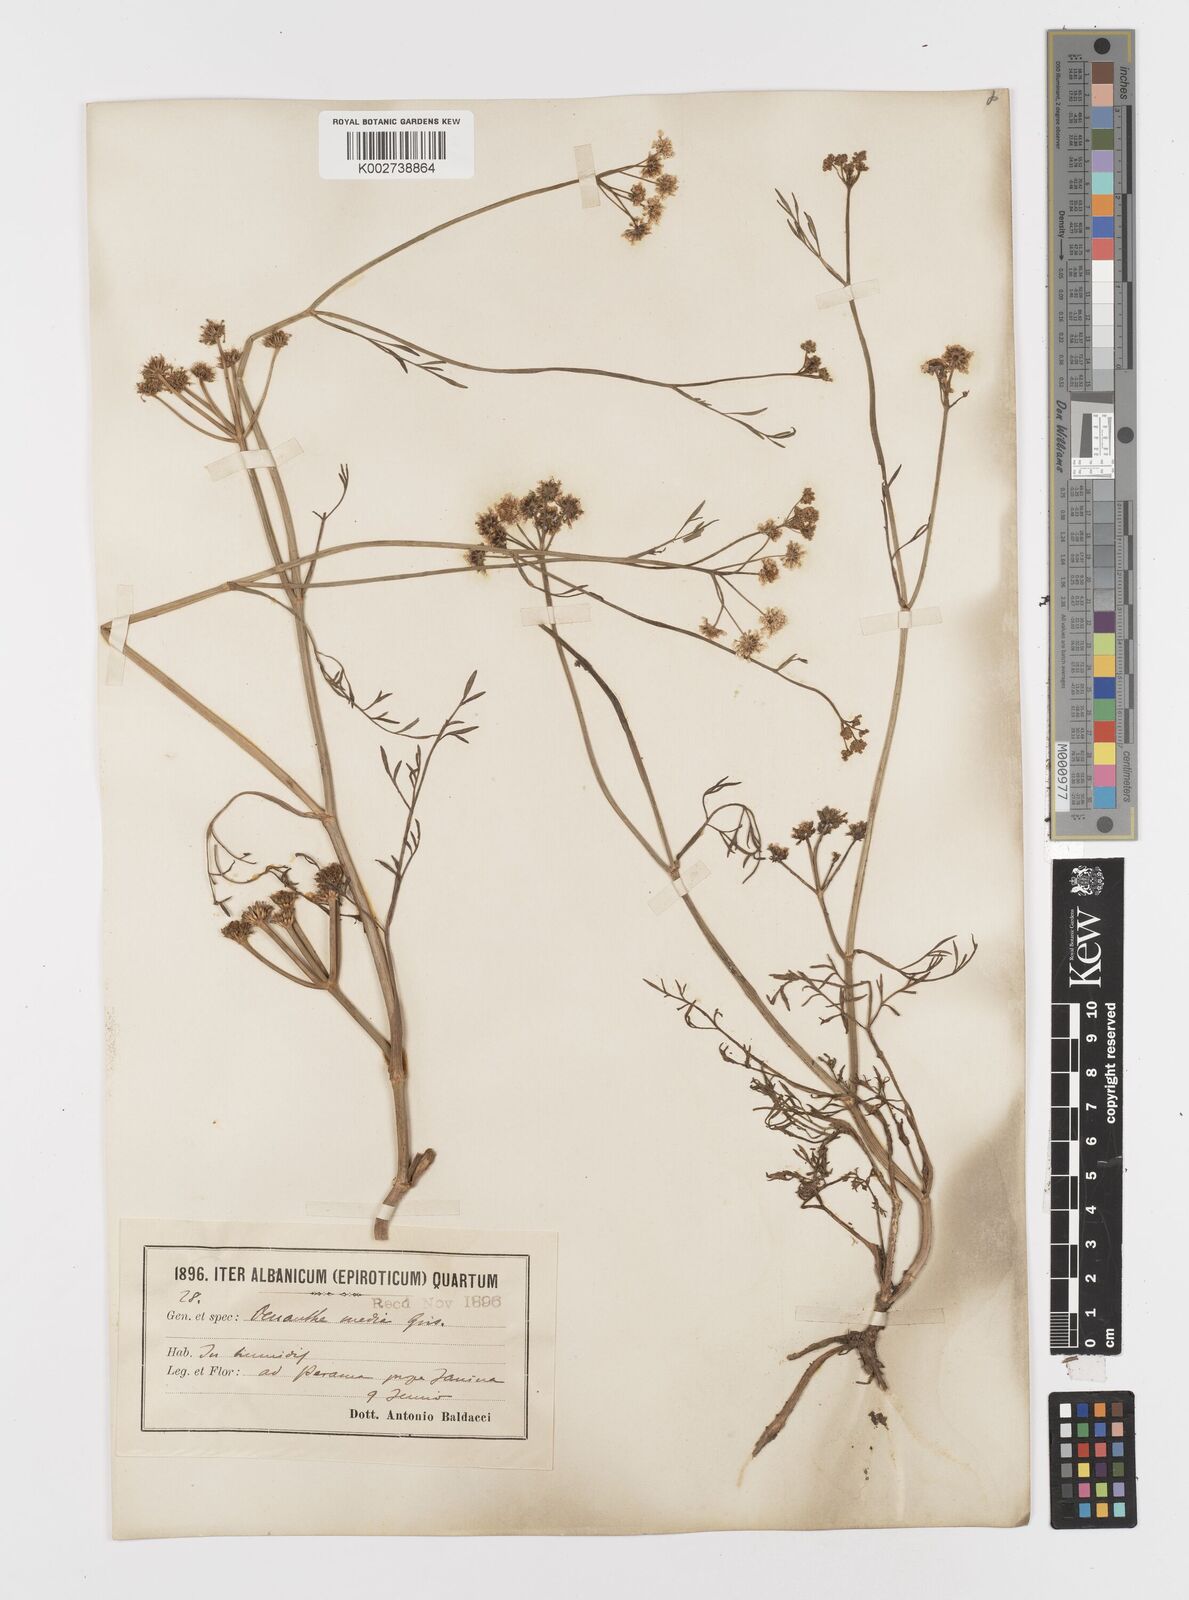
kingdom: Plantae
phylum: Tracheophyta
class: Magnoliopsida
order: Apiales
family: Apiaceae
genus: Oenanthe
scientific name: Oenanthe silaifolia
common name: Narrow-leaved water-dropwort
